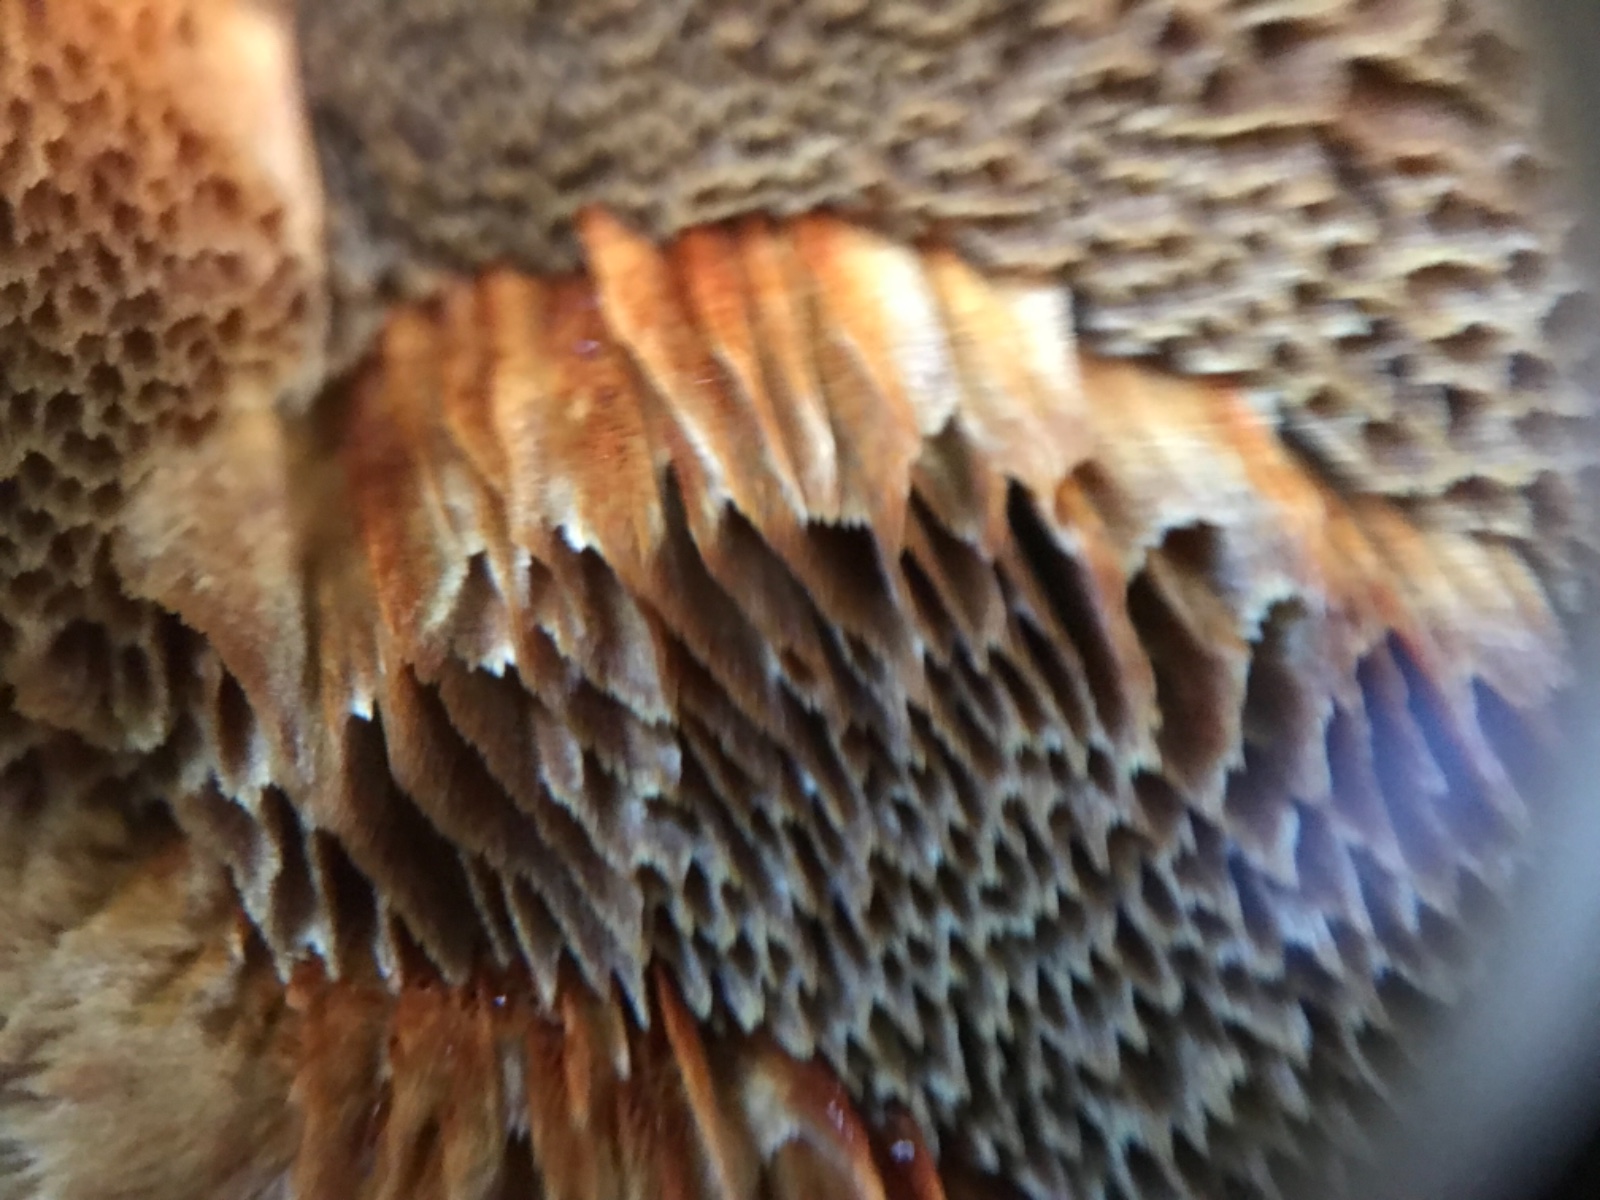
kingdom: Fungi
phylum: Basidiomycota
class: Agaricomycetes
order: Polyporales
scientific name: Polyporales
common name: poresvampordenen
